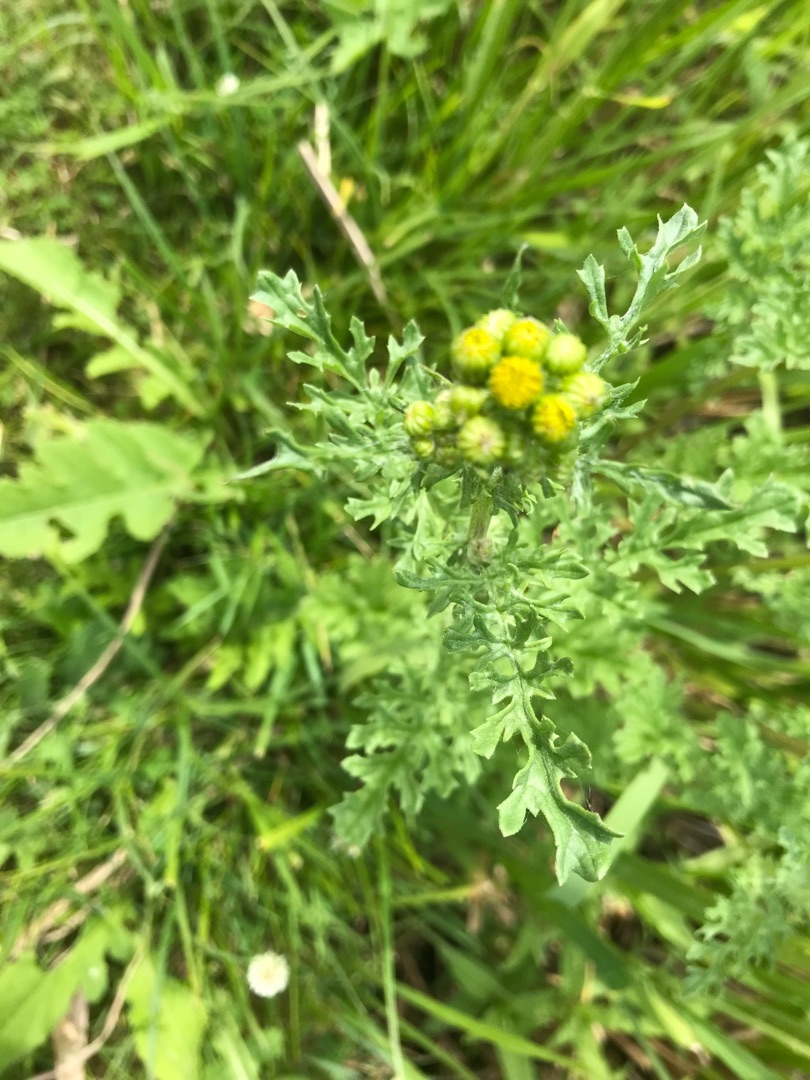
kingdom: Plantae
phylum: Tracheophyta
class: Magnoliopsida
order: Asterales
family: Asteraceae
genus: Jacobaea
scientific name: Jacobaea vulgaris
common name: Eng-brandbæger
